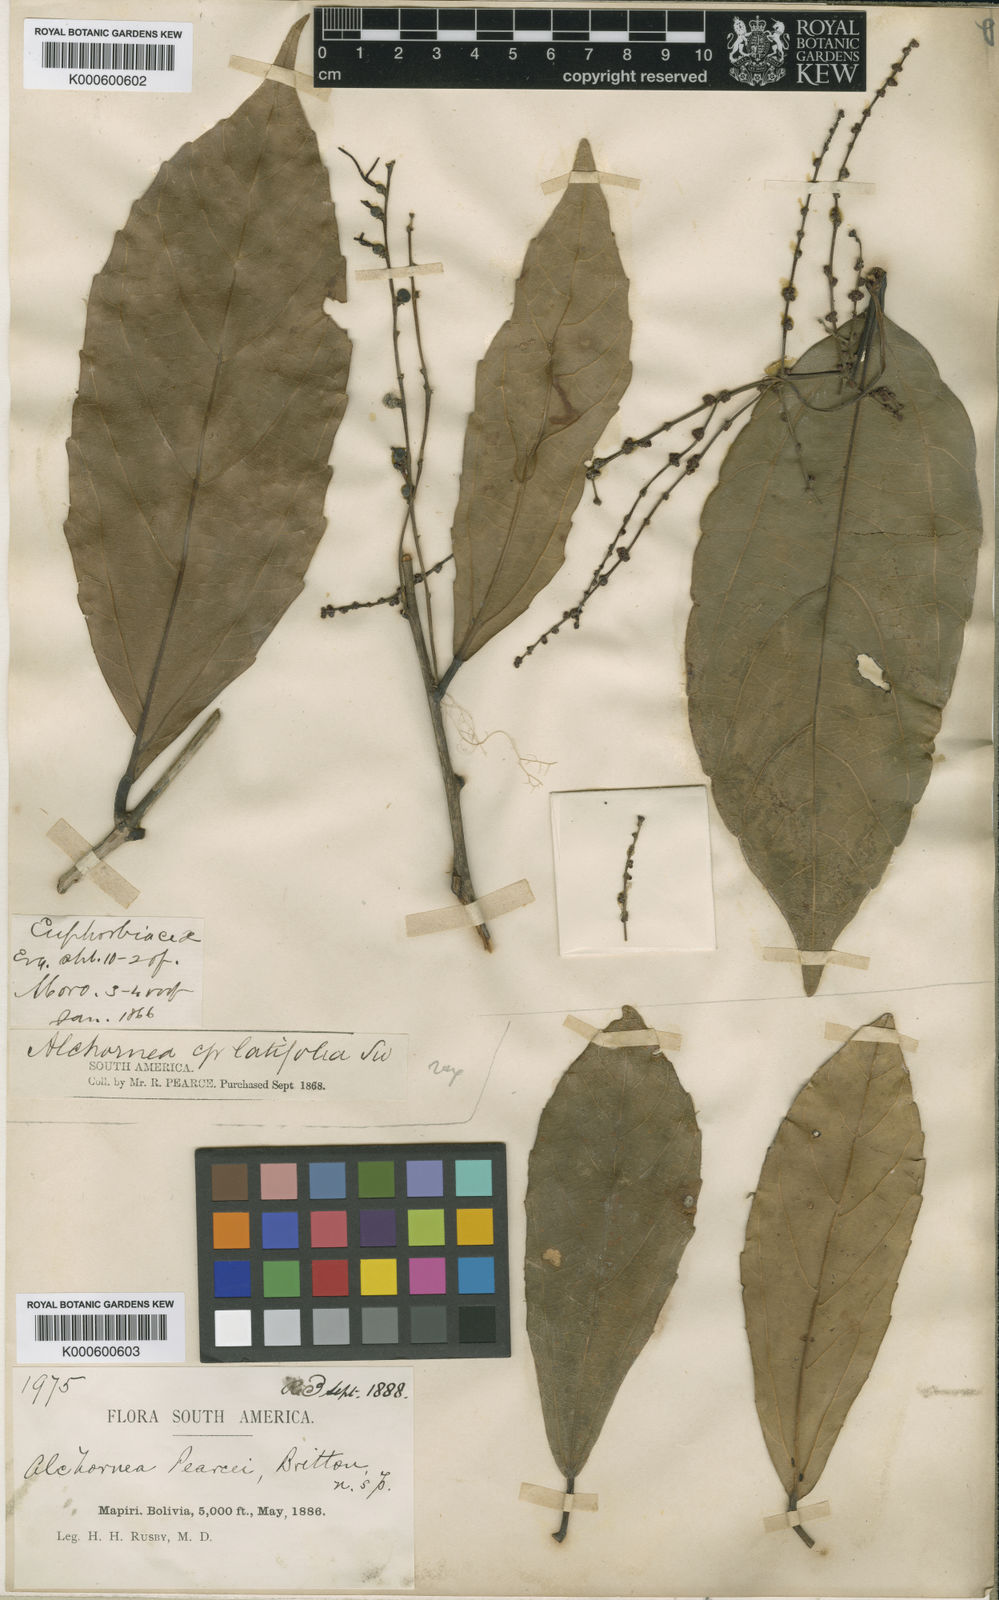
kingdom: Plantae
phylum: Tracheophyta
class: Magnoliopsida
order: Malpighiales
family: Euphorbiaceae
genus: Alchornea
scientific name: Alchornea pearcei
